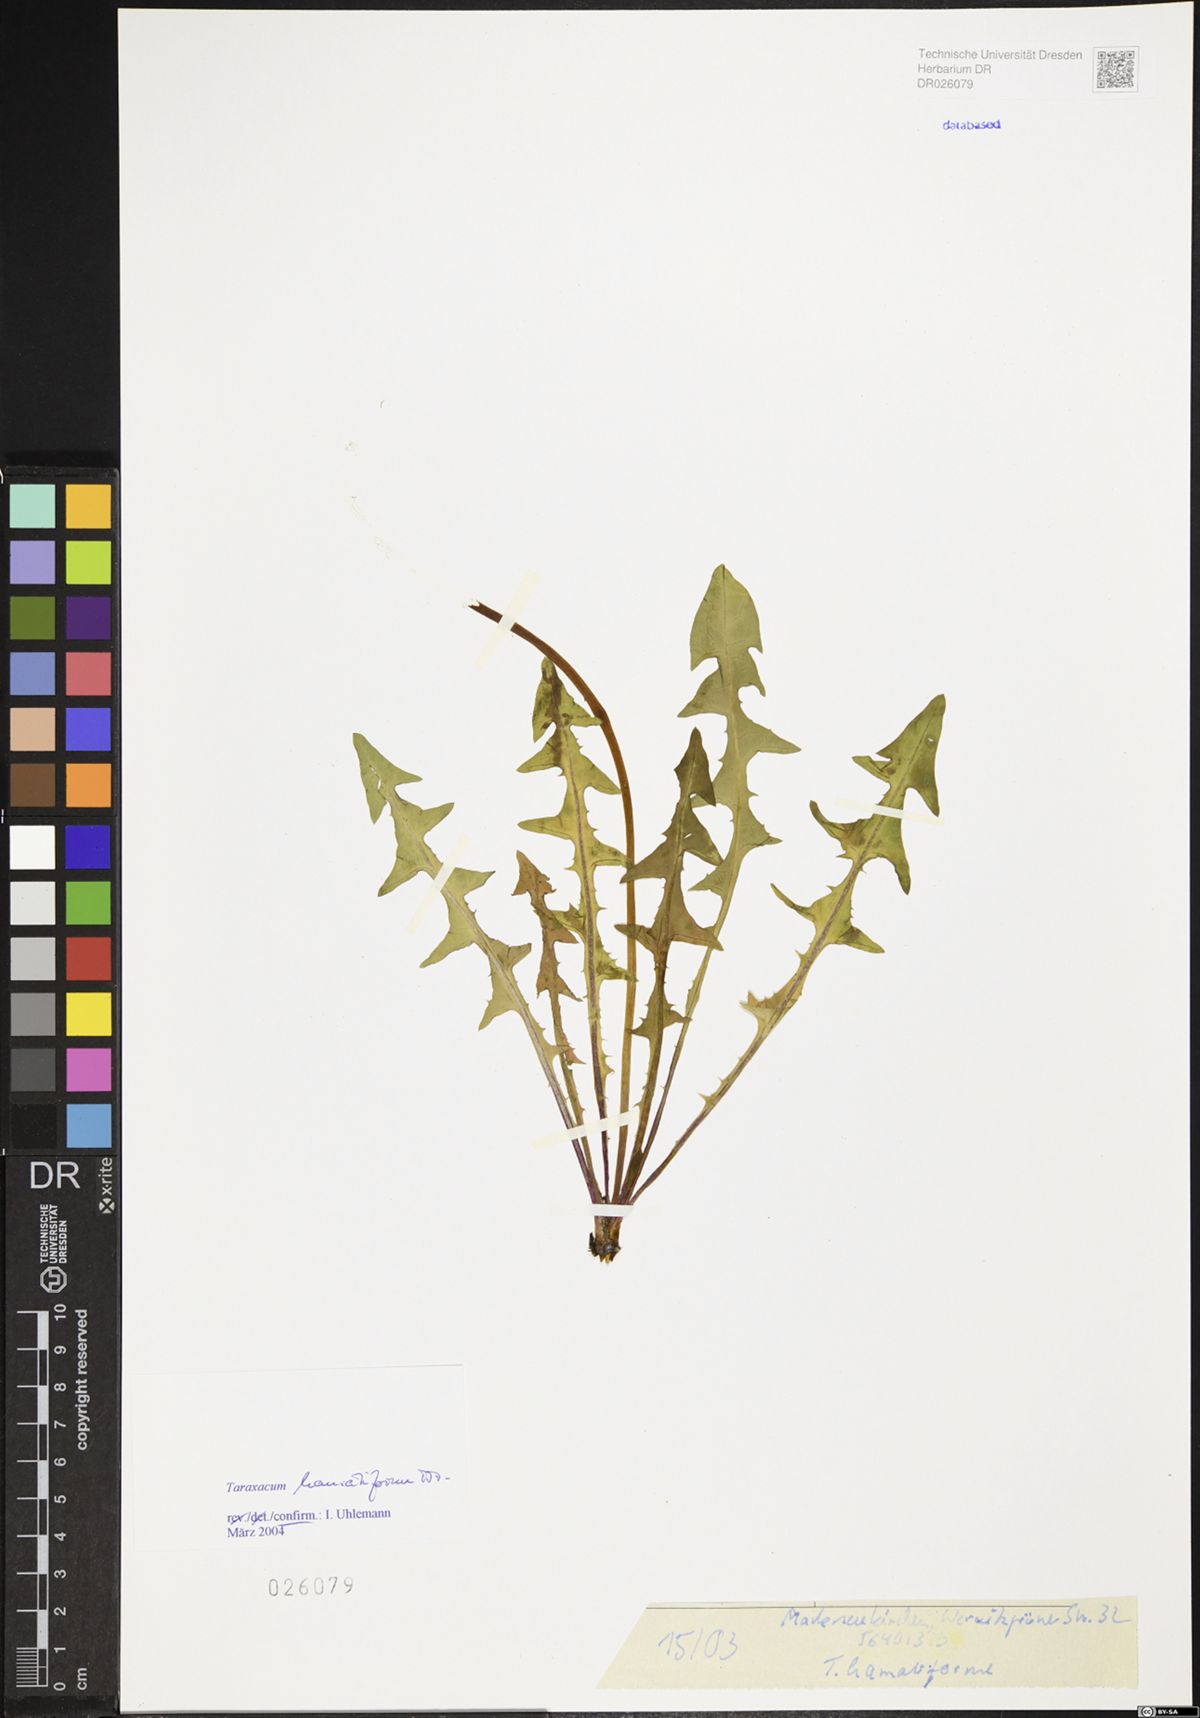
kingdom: Plantae
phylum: Tracheophyta
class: Magnoliopsida
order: Asterales
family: Asteraceae
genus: Taraxacum
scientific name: Taraxacum hamatiforme
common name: Asymmetrical hook-lobed dandelion
